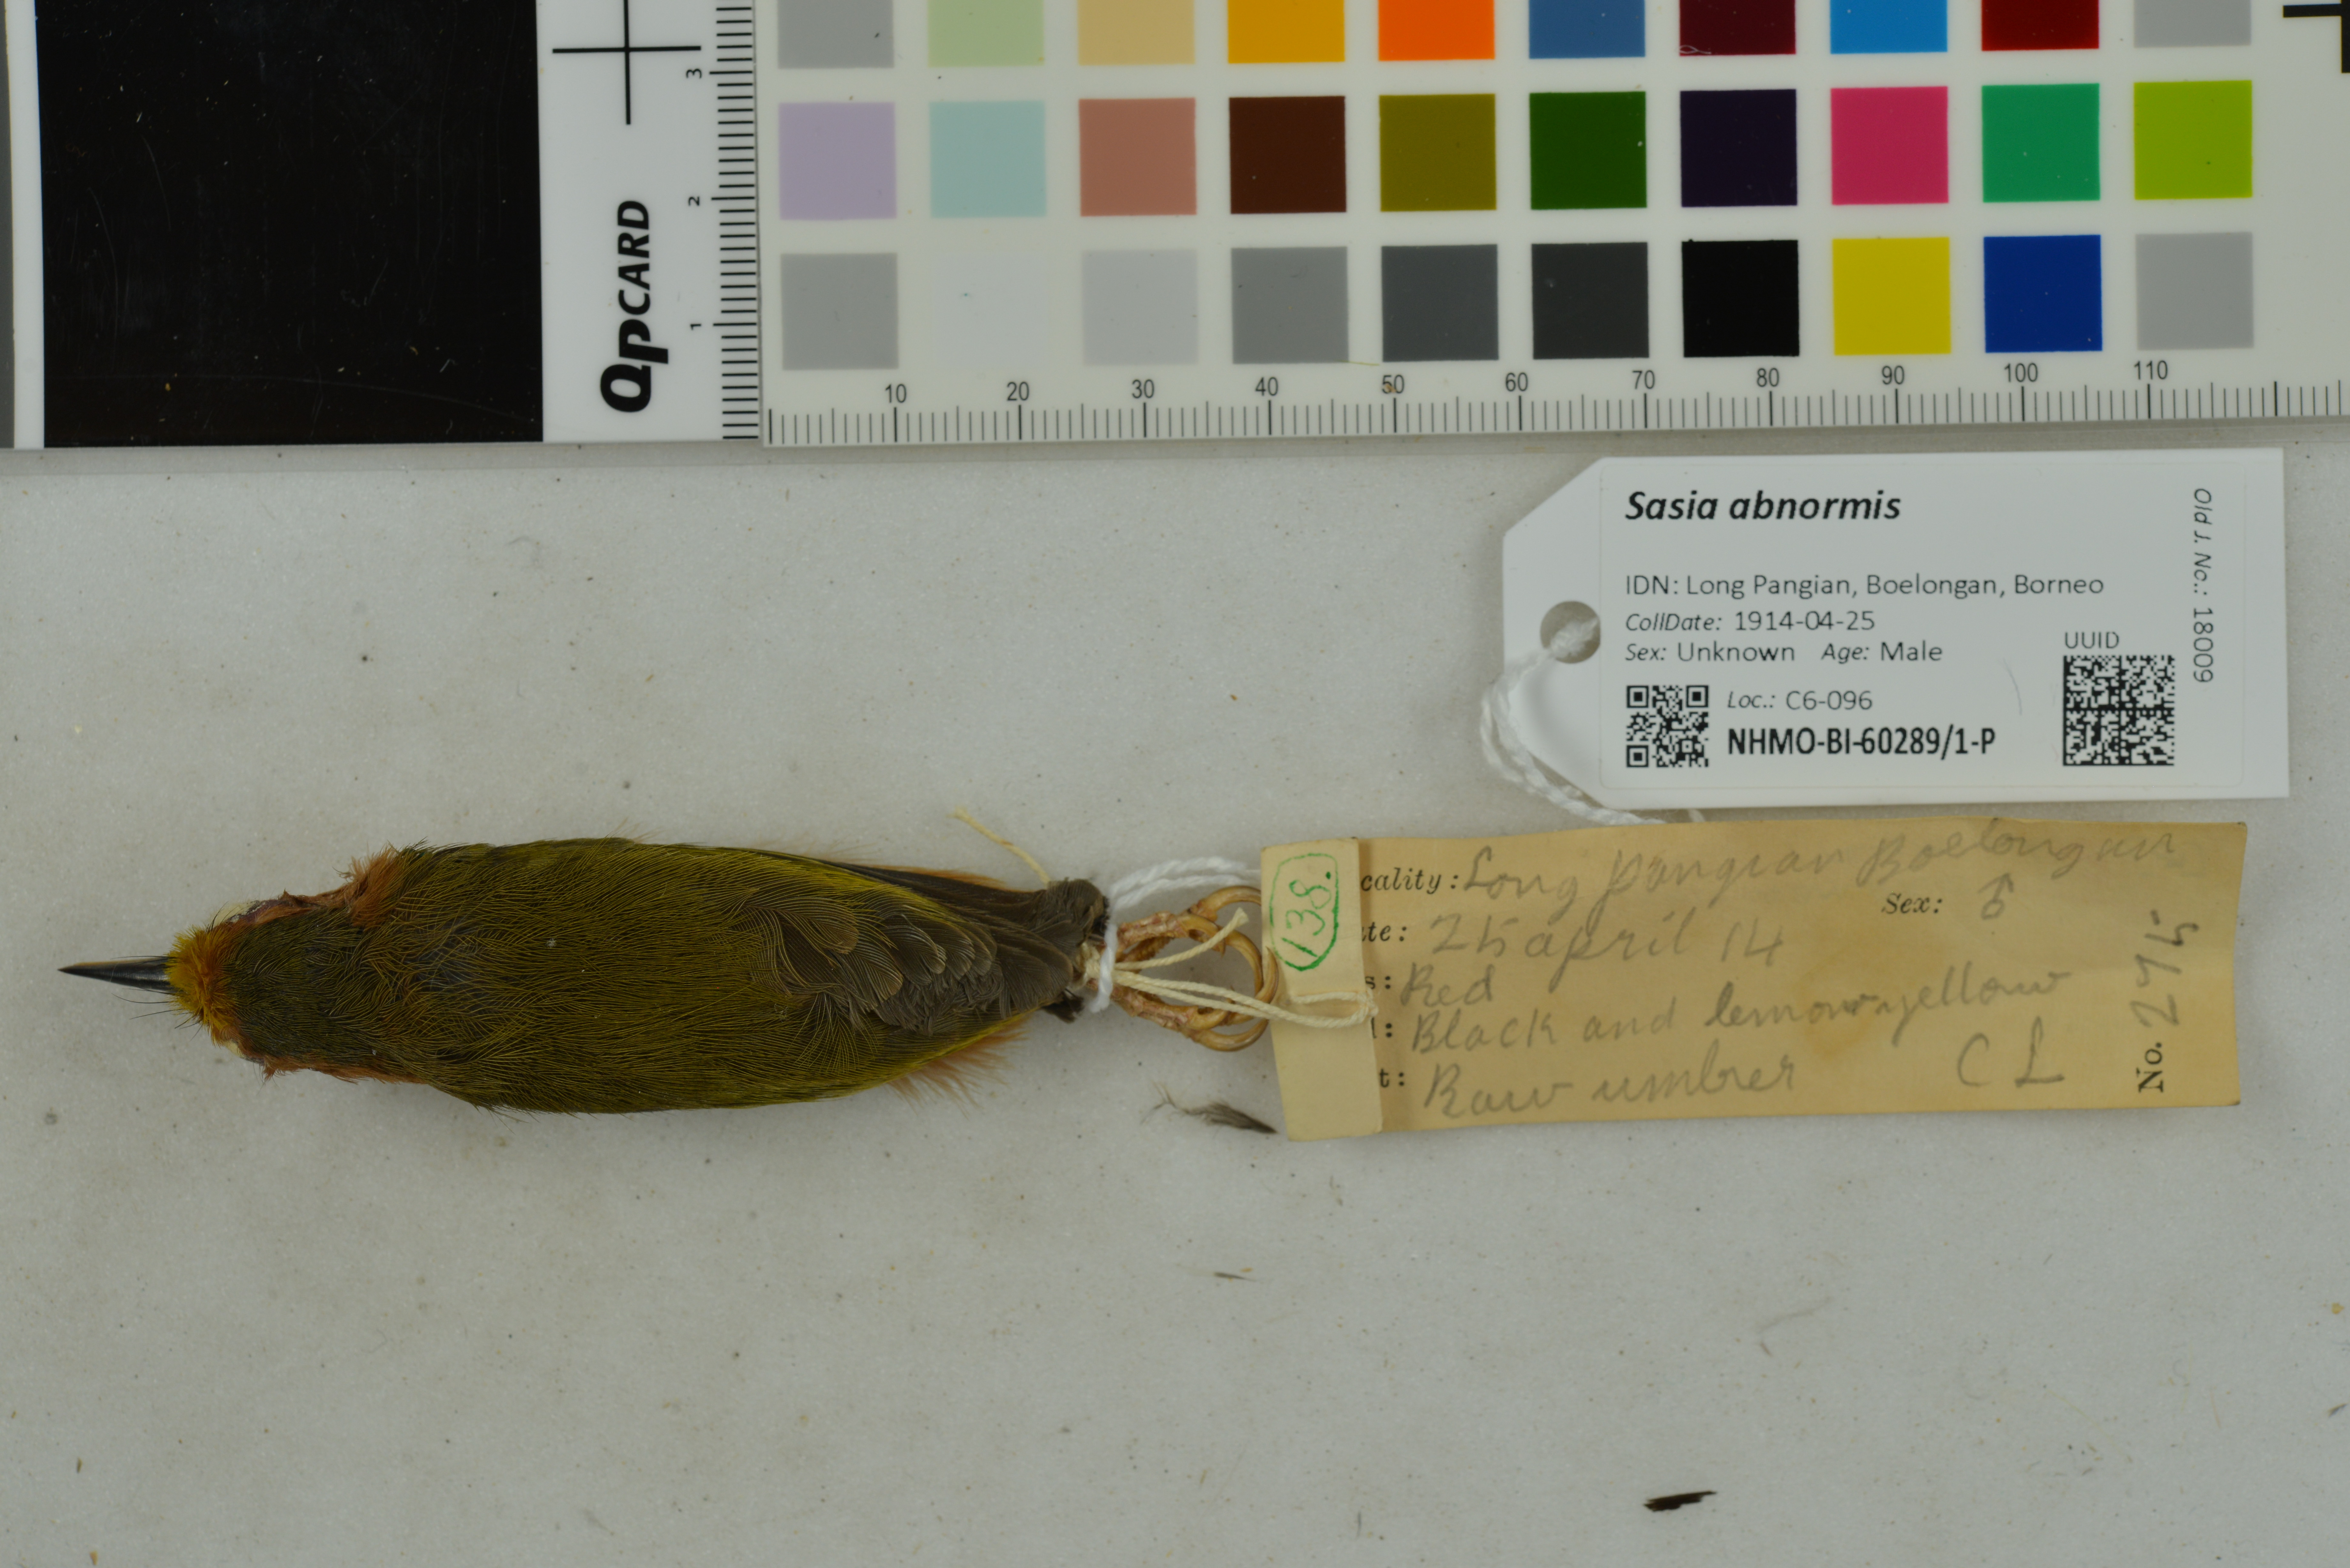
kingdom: Animalia
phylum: Chordata
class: Aves
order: Piciformes
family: Picidae
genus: Sasia
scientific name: Sasia abnormis
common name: Rufous piculet
